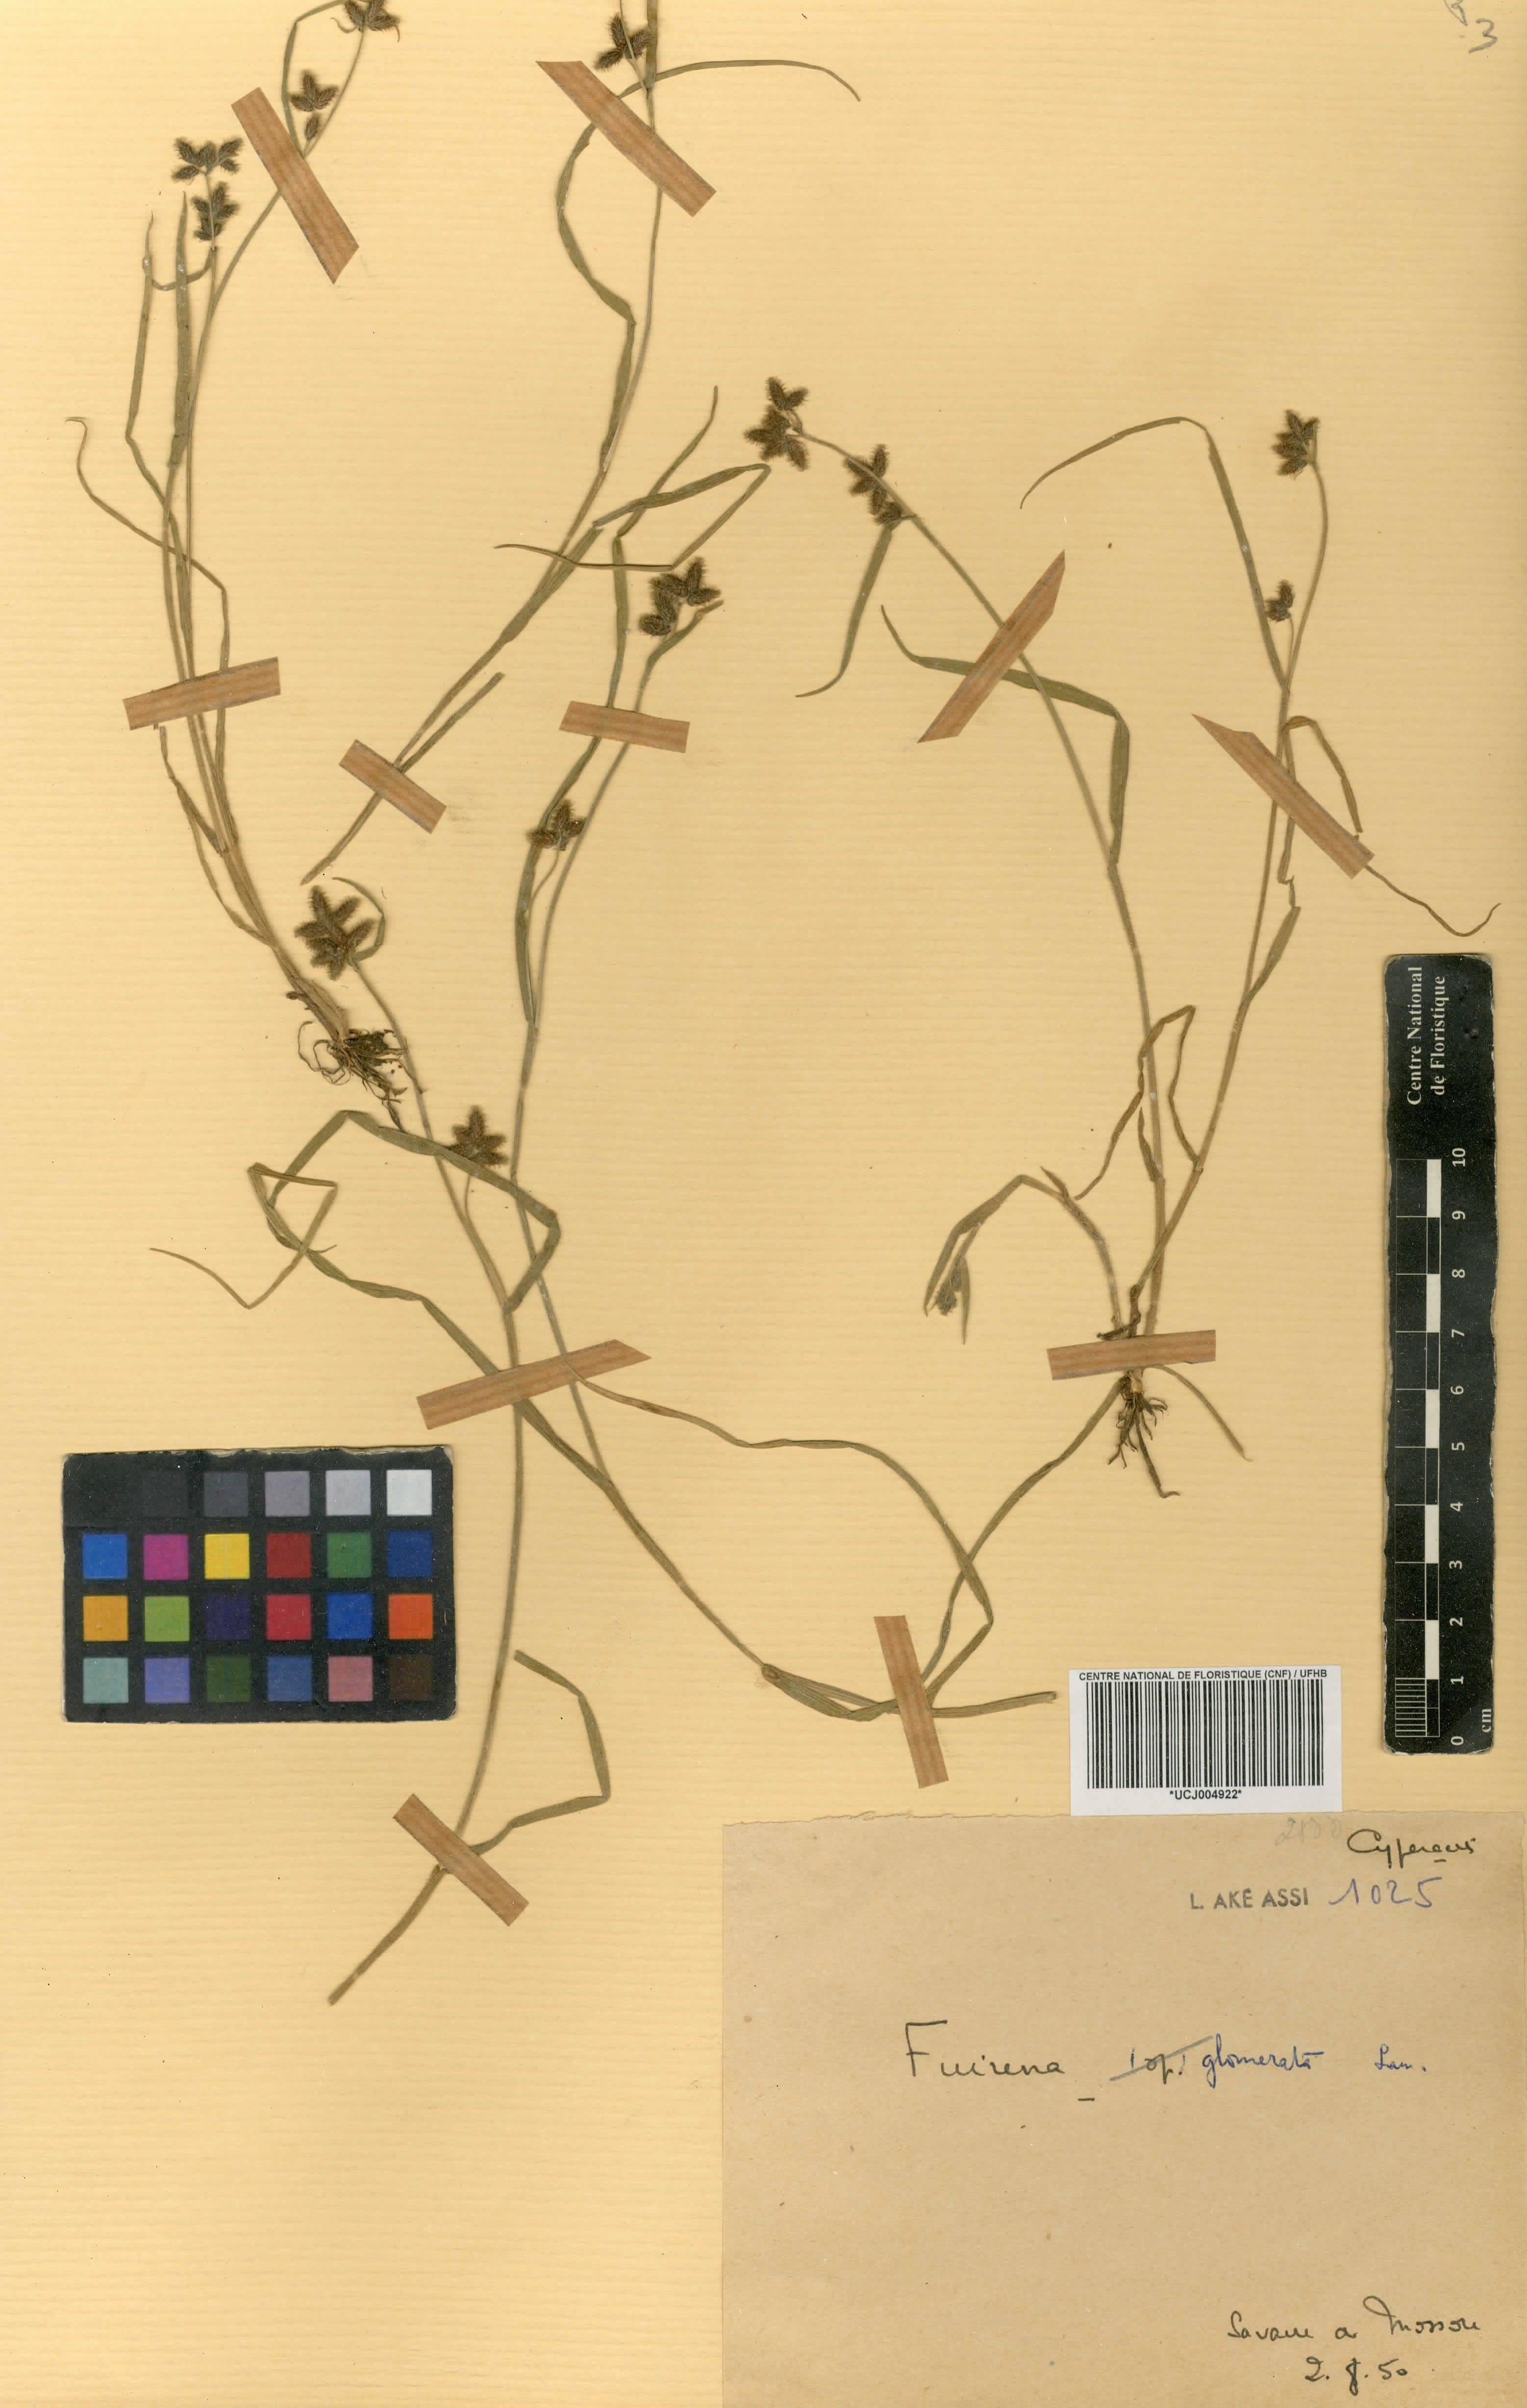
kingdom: Plantae
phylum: Tracheophyta
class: Liliopsida
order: Poales
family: Cyperaceae
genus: Fuirena
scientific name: Fuirena umbellata
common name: Yefen
